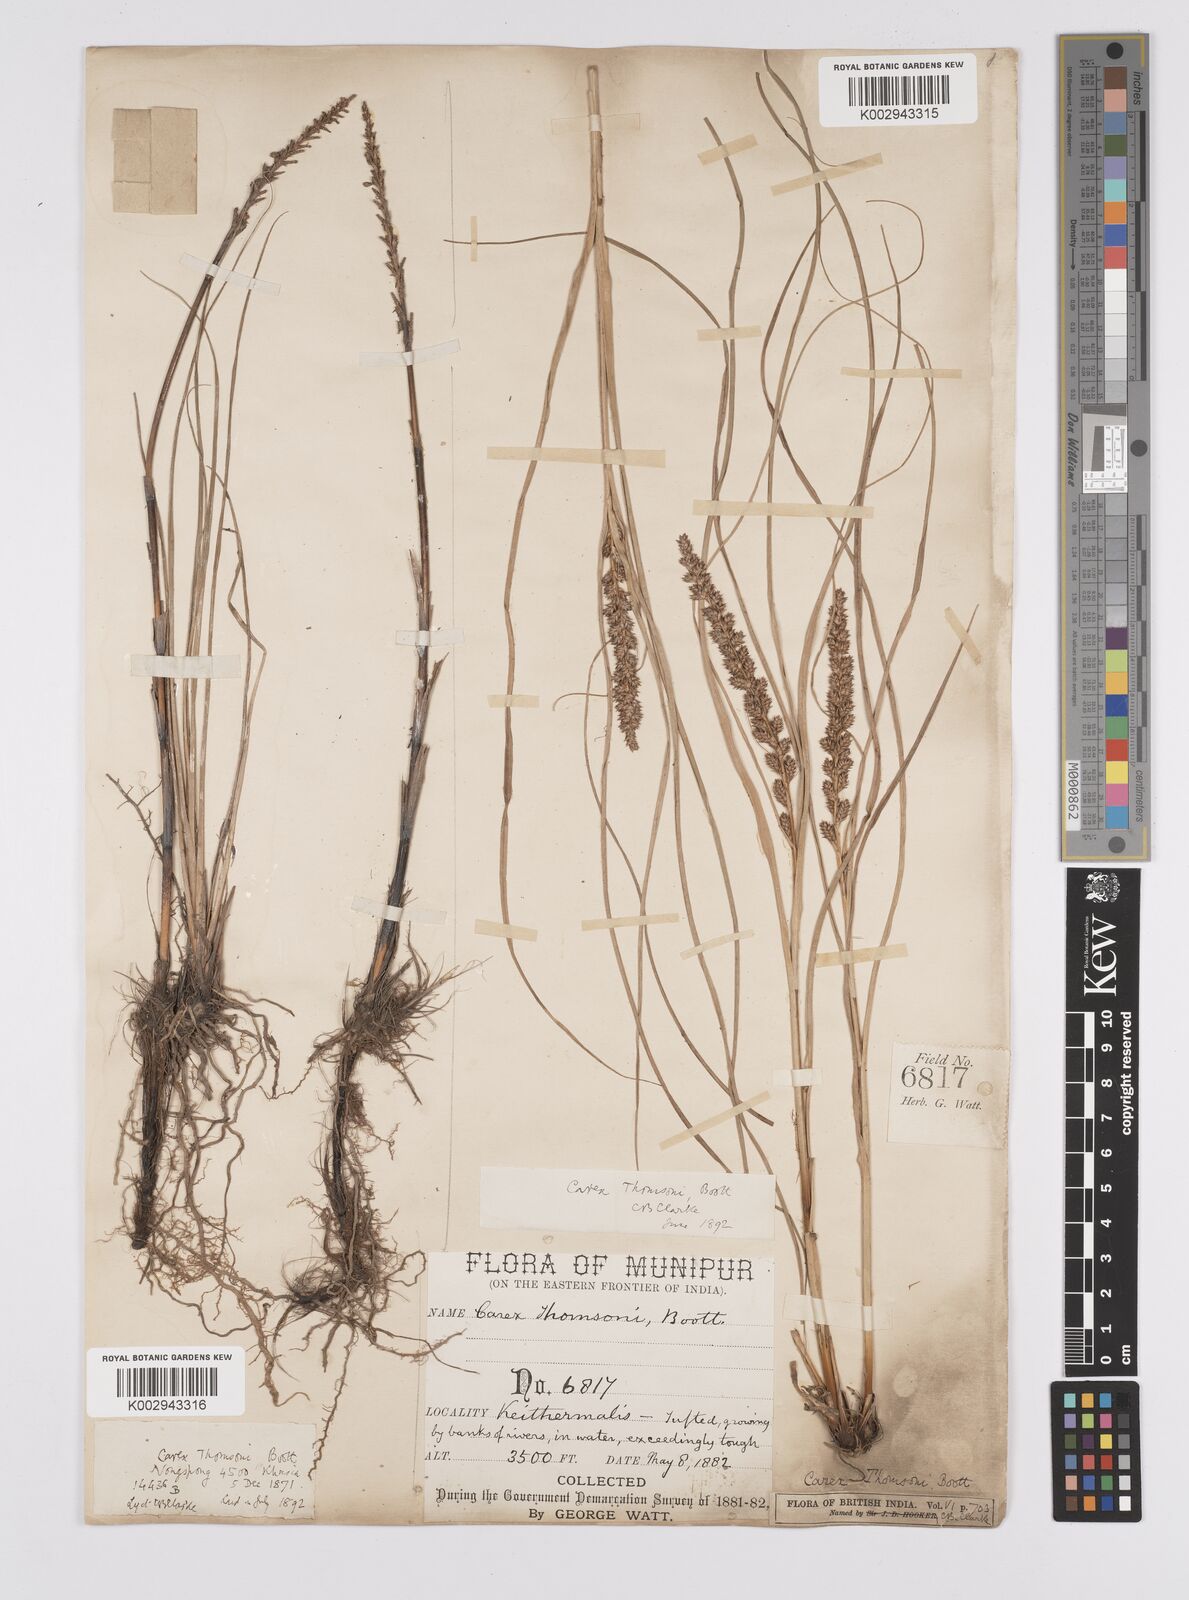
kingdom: Plantae
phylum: Tracheophyta
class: Liliopsida
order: Poales
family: Cyperaceae
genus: Carex
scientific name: Carex thomsonii
